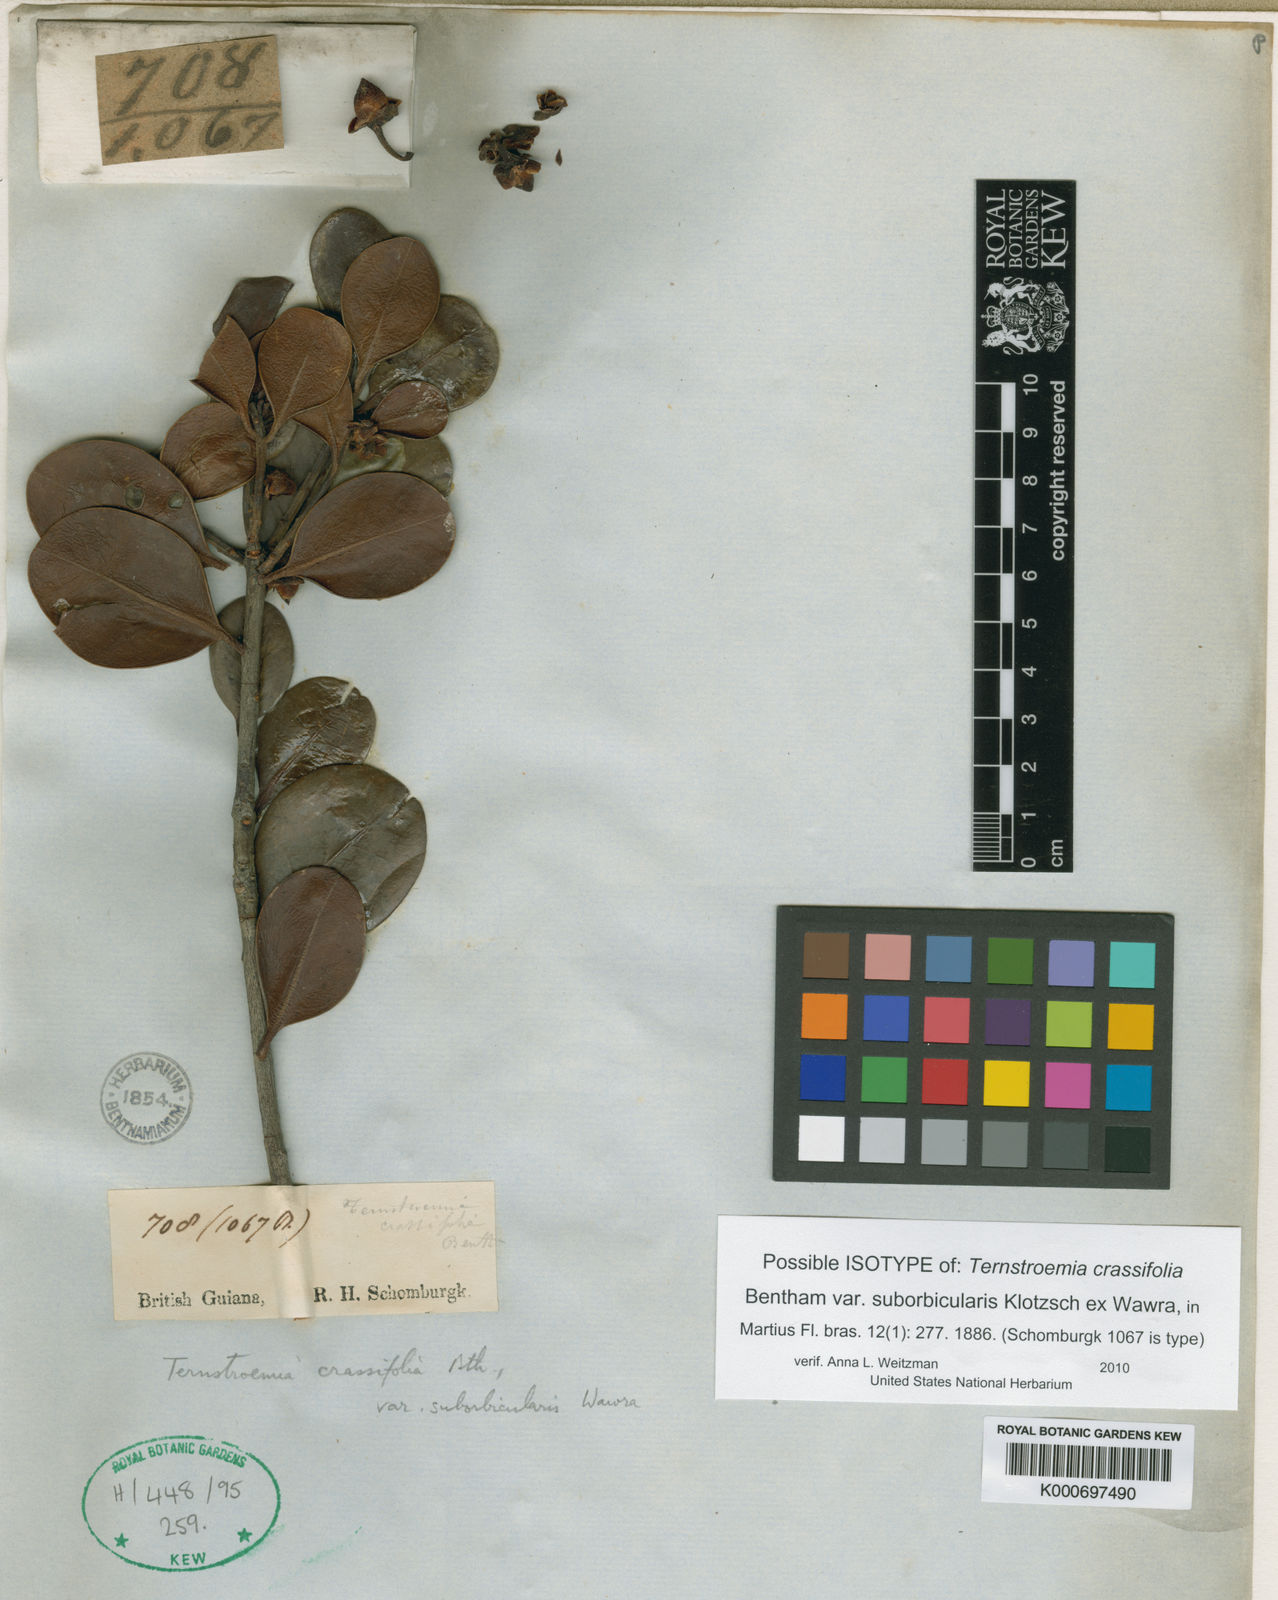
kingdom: Plantae
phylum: Tracheophyta
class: Magnoliopsida
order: Ericales
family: Pentaphylacaceae
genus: Ternstroemia
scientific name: Ternstroemia crassifolia
